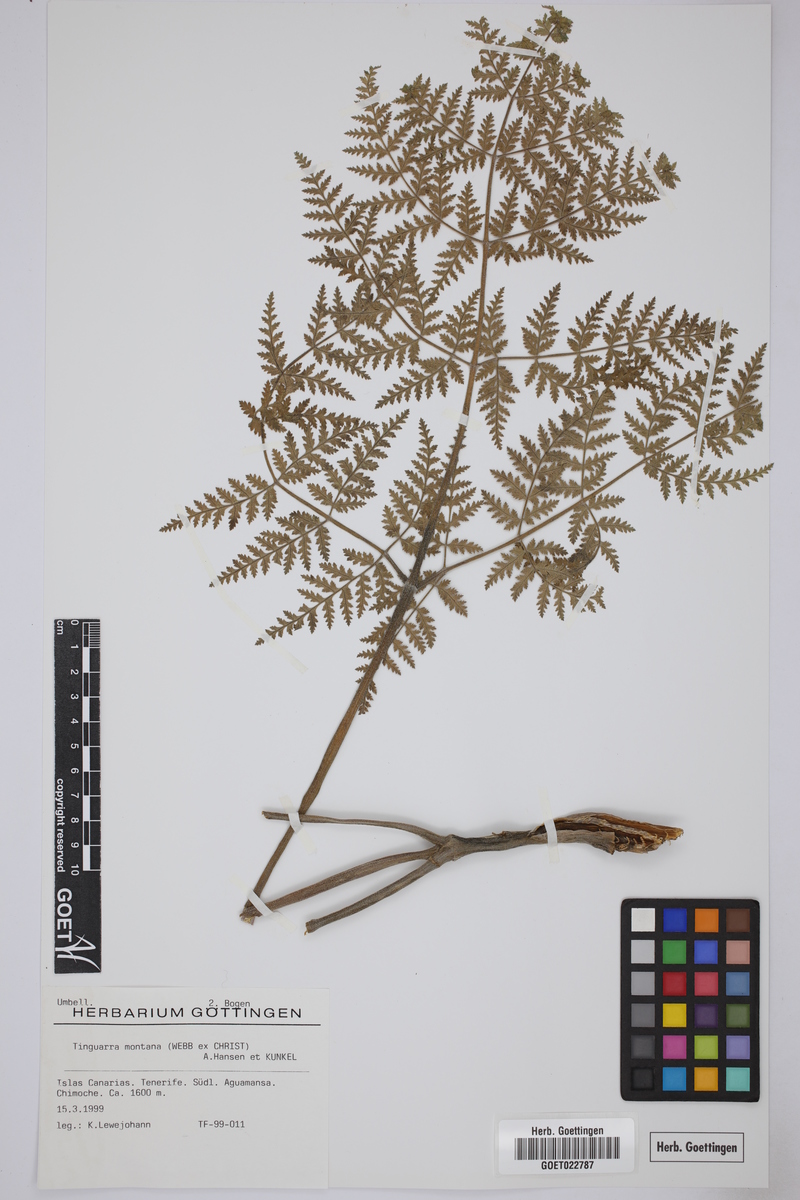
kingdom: Plantae
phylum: Tracheophyta
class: Magnoliopsida
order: Apiales
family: Apiaceae
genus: Athamanta
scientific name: Athamanta montana
